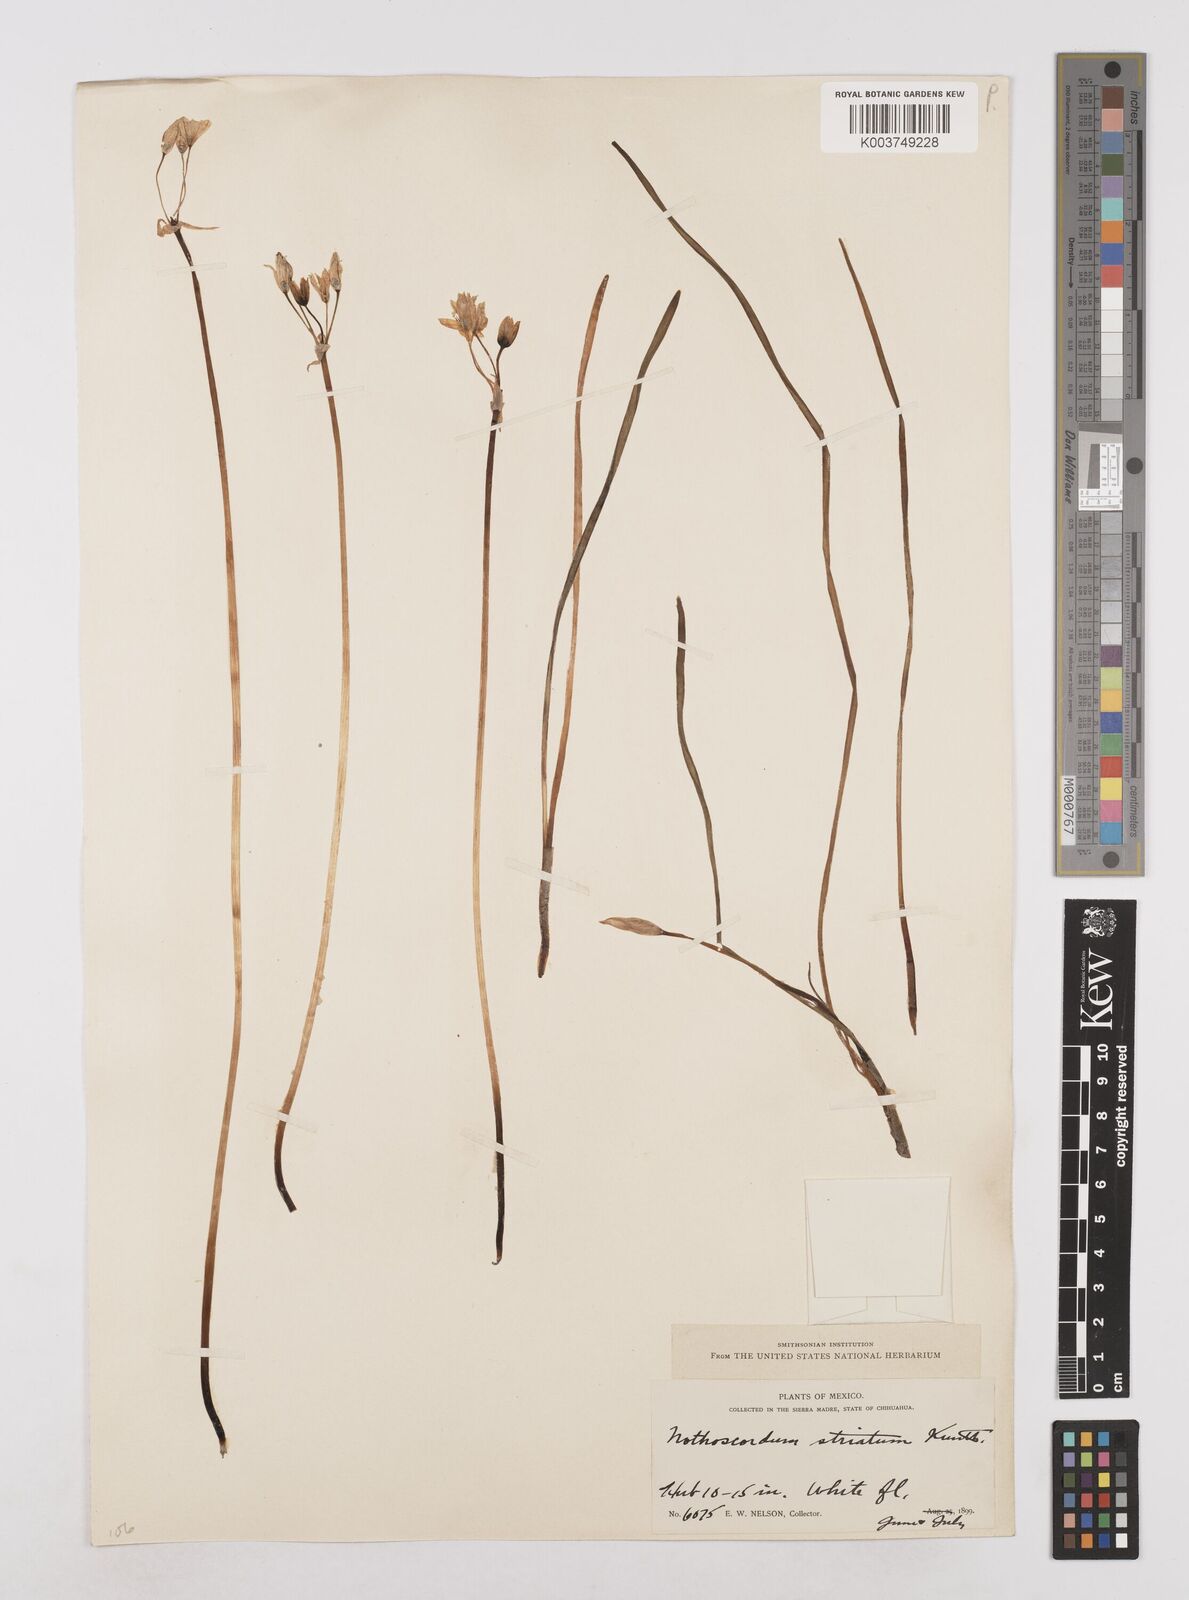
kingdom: Plantae
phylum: Tracheophyta
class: Liliopsida
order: Asparagales
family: Amaryllidaceae
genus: Nothoscordum
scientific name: Nothoscordum bivalve
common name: Crow-poison
